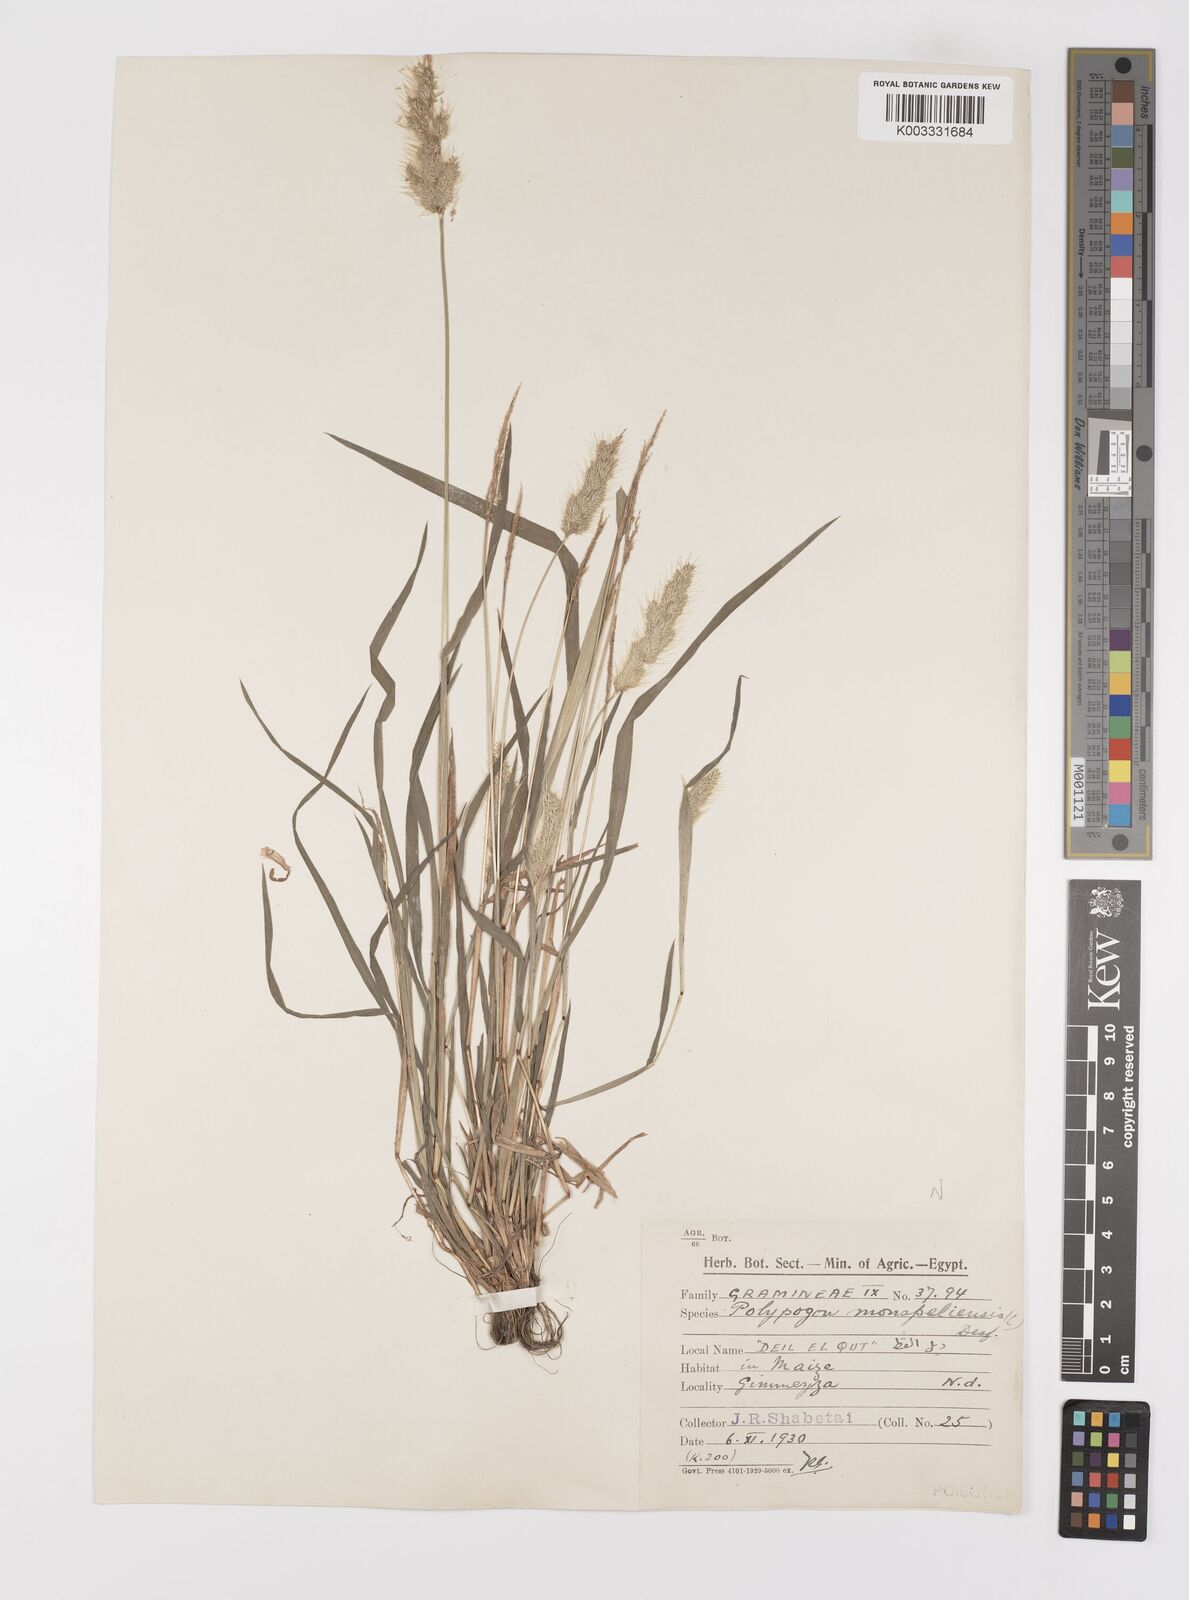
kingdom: Plantae
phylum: Tracheophyta
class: Liliopsida
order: Poales
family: Poaceae
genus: Polypogon
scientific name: Polypogon monspeliensis
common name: Annual rabbitsfoot grass
